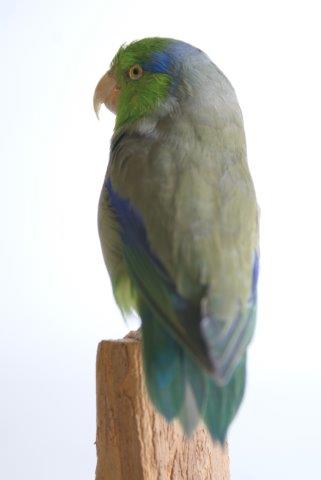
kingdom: Animalia
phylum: Chordata
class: Aves
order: Psittaciformes
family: Psittacidae
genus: Forpus
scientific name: Forpus coelestis
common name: Pacific parrotlet
